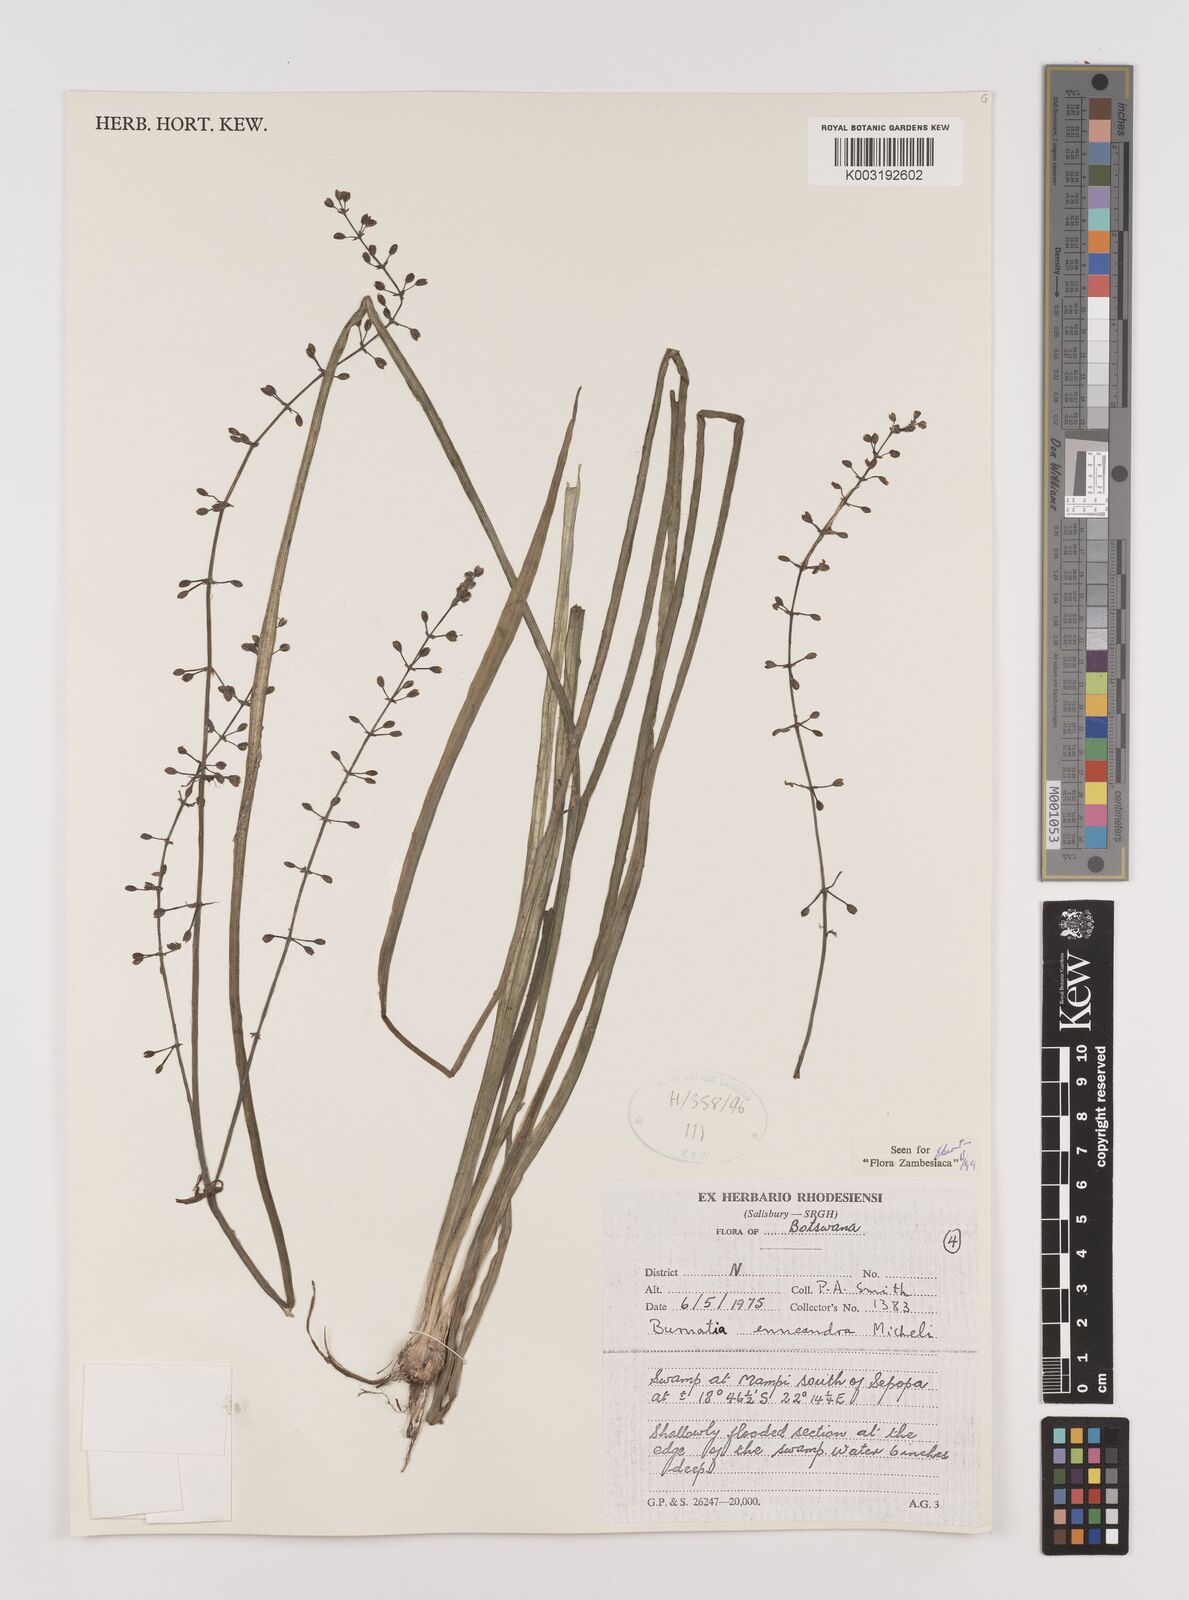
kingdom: Plantae
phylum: Tracheophyta
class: Liliopsida
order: Alismatales
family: Alismataceae
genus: Burnatia
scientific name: Burnatia enneandra
